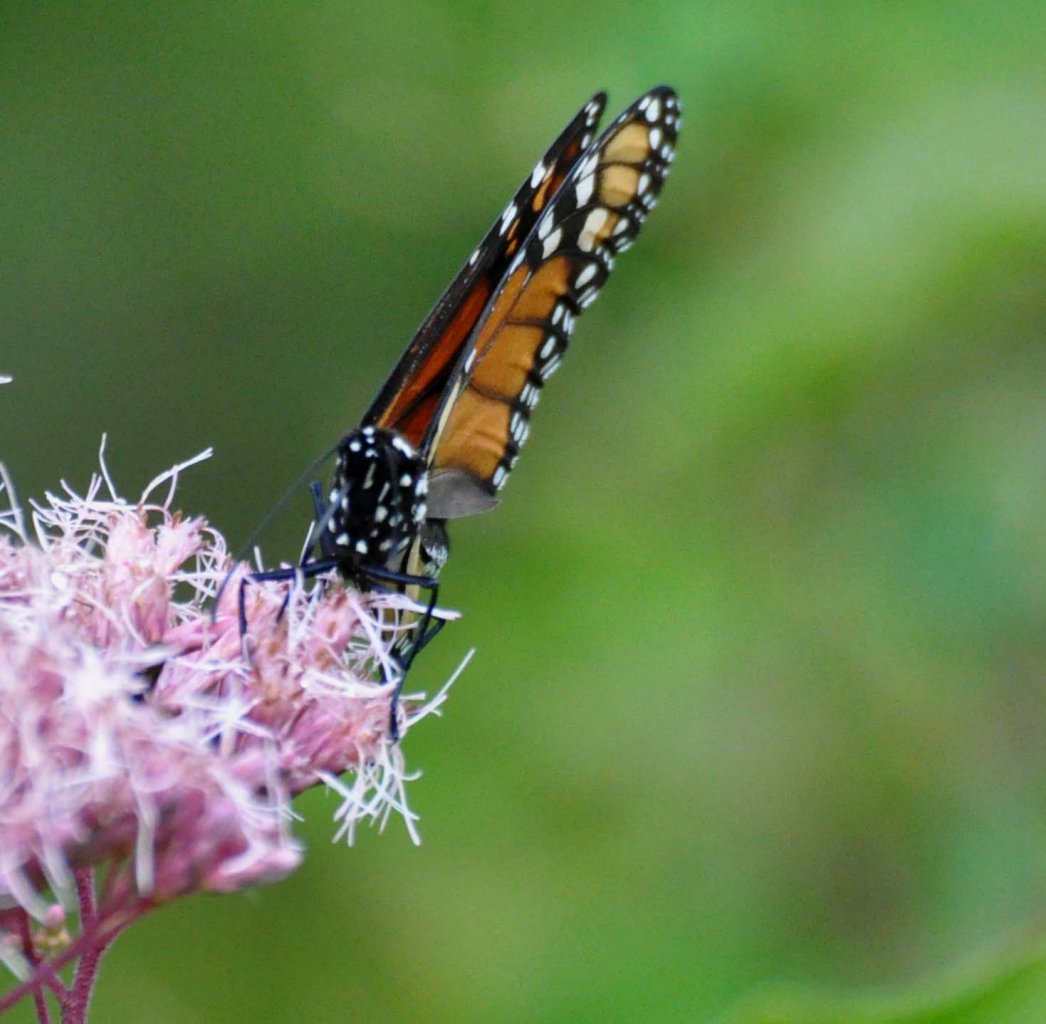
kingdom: Animalia
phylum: Arthropoda
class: Insecta
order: Lepidoptera
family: Nymphalidae
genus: Danaus
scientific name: Danaus plexippus
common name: Monarch
